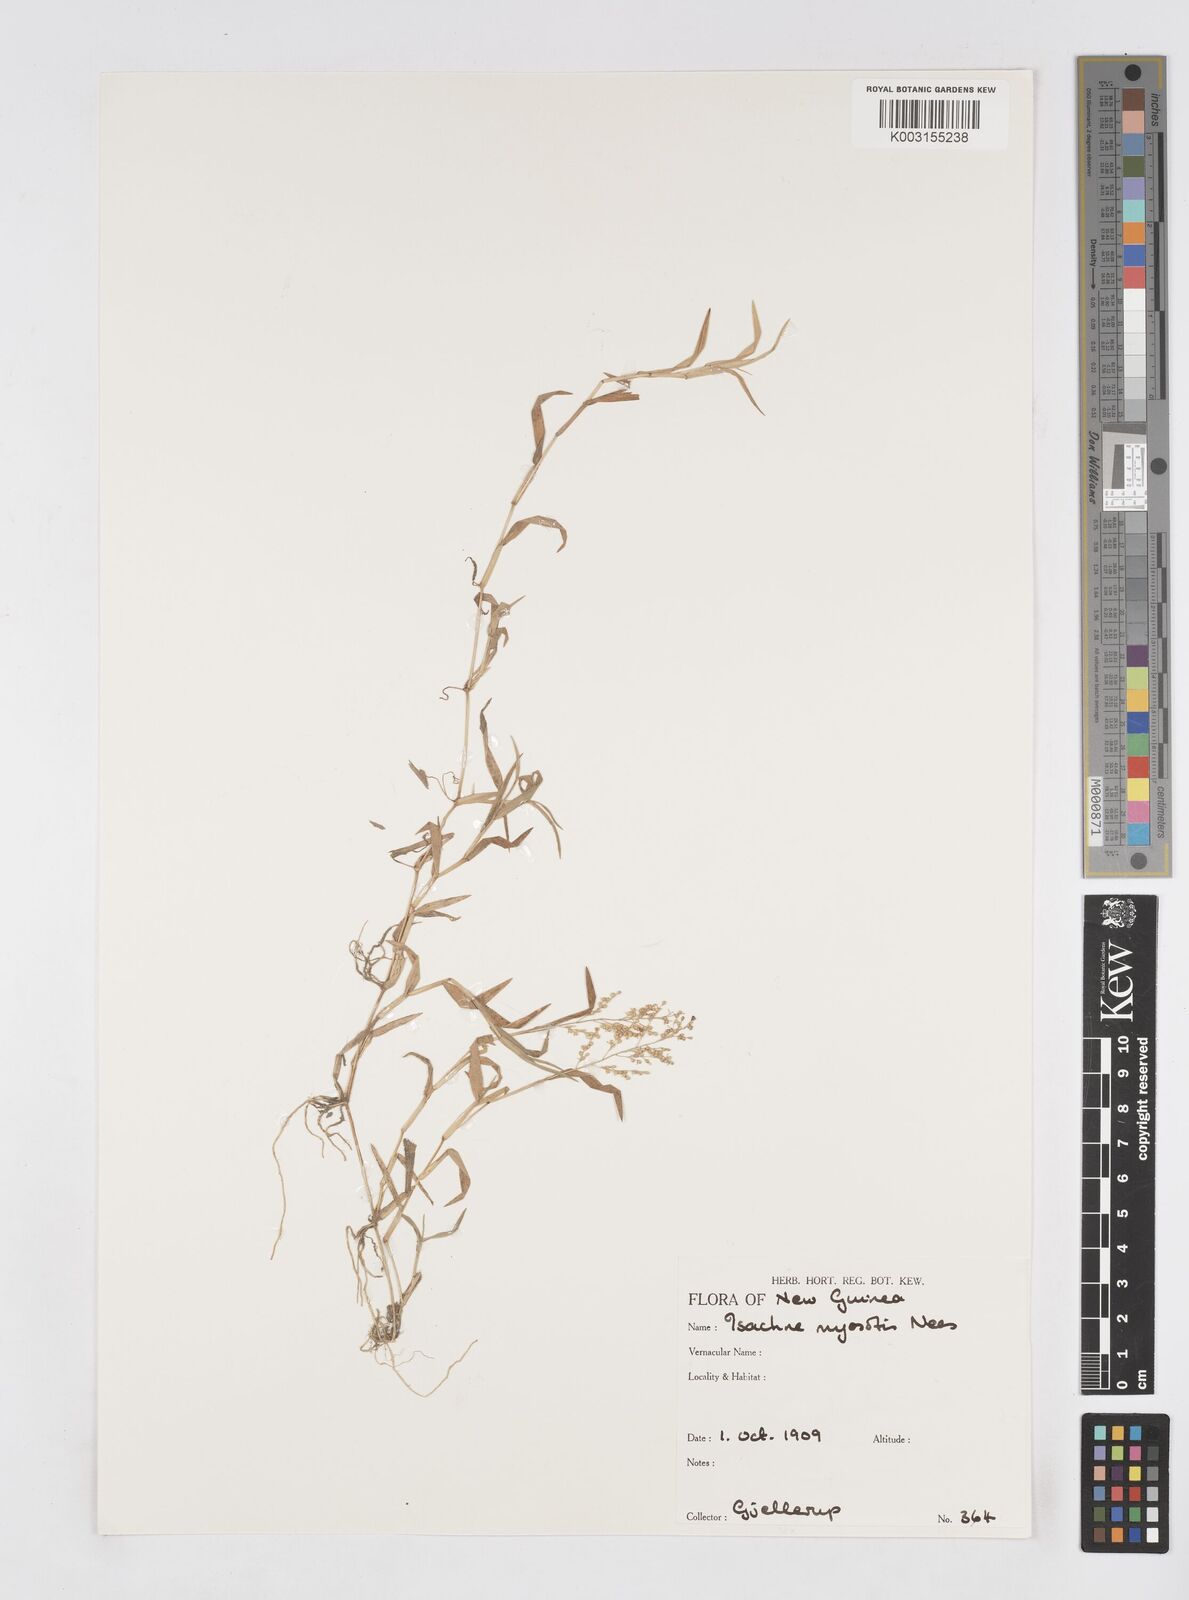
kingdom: Plantae
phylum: Tracheophyta
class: Liliopsida
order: Poales
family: Poaceae
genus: Isachne
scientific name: Isachne myosotis
